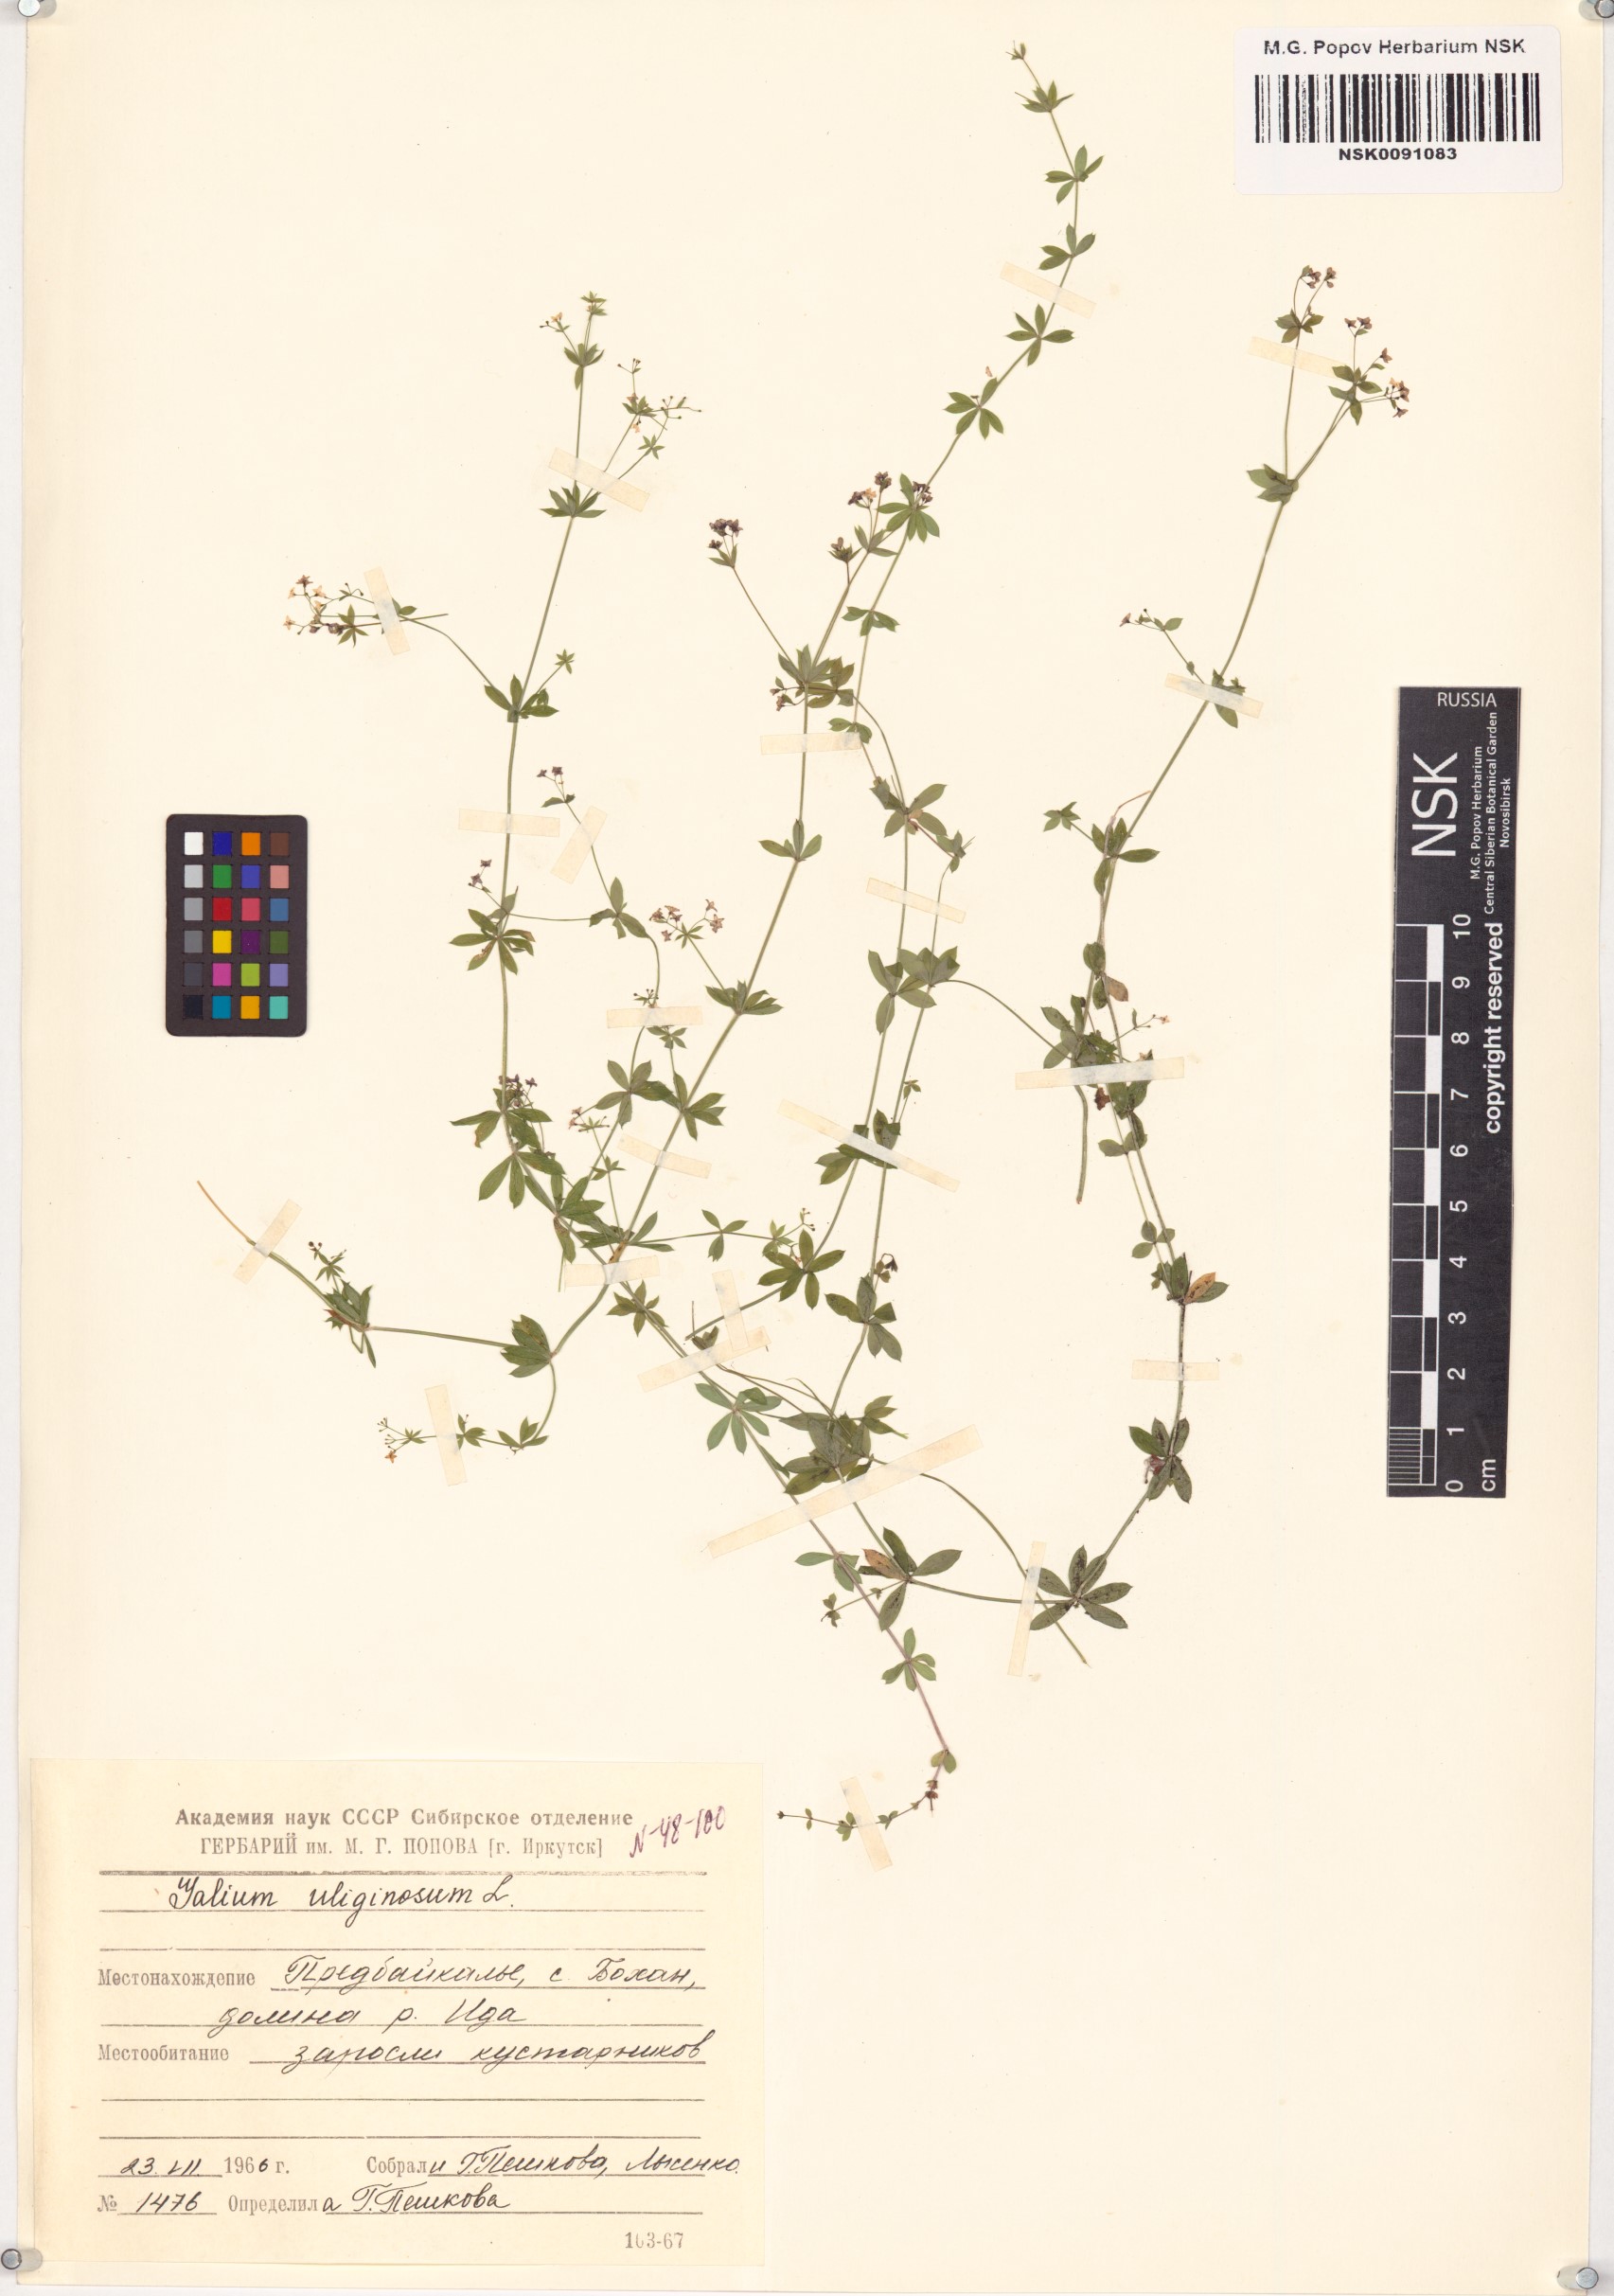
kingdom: Plantae
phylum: Tracheophyta
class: Magnoliopsida
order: Gentianales
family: Rubiaceae
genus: Galium
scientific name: Galium uliginosum
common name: Fen bedstraw
